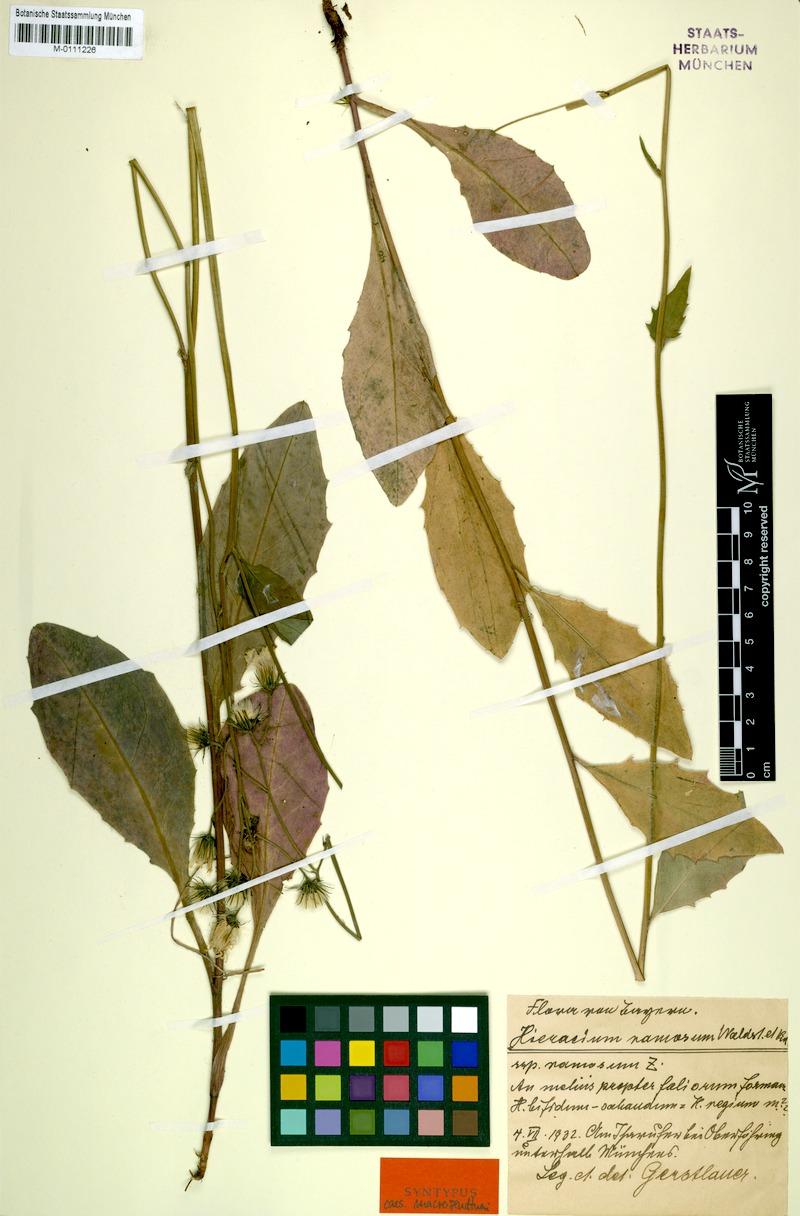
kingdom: Plantae
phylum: Tracheophyta
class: Magnoliopsida
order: Asterales
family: Asteraceae
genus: Hieracium
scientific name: Hieracium caesium
